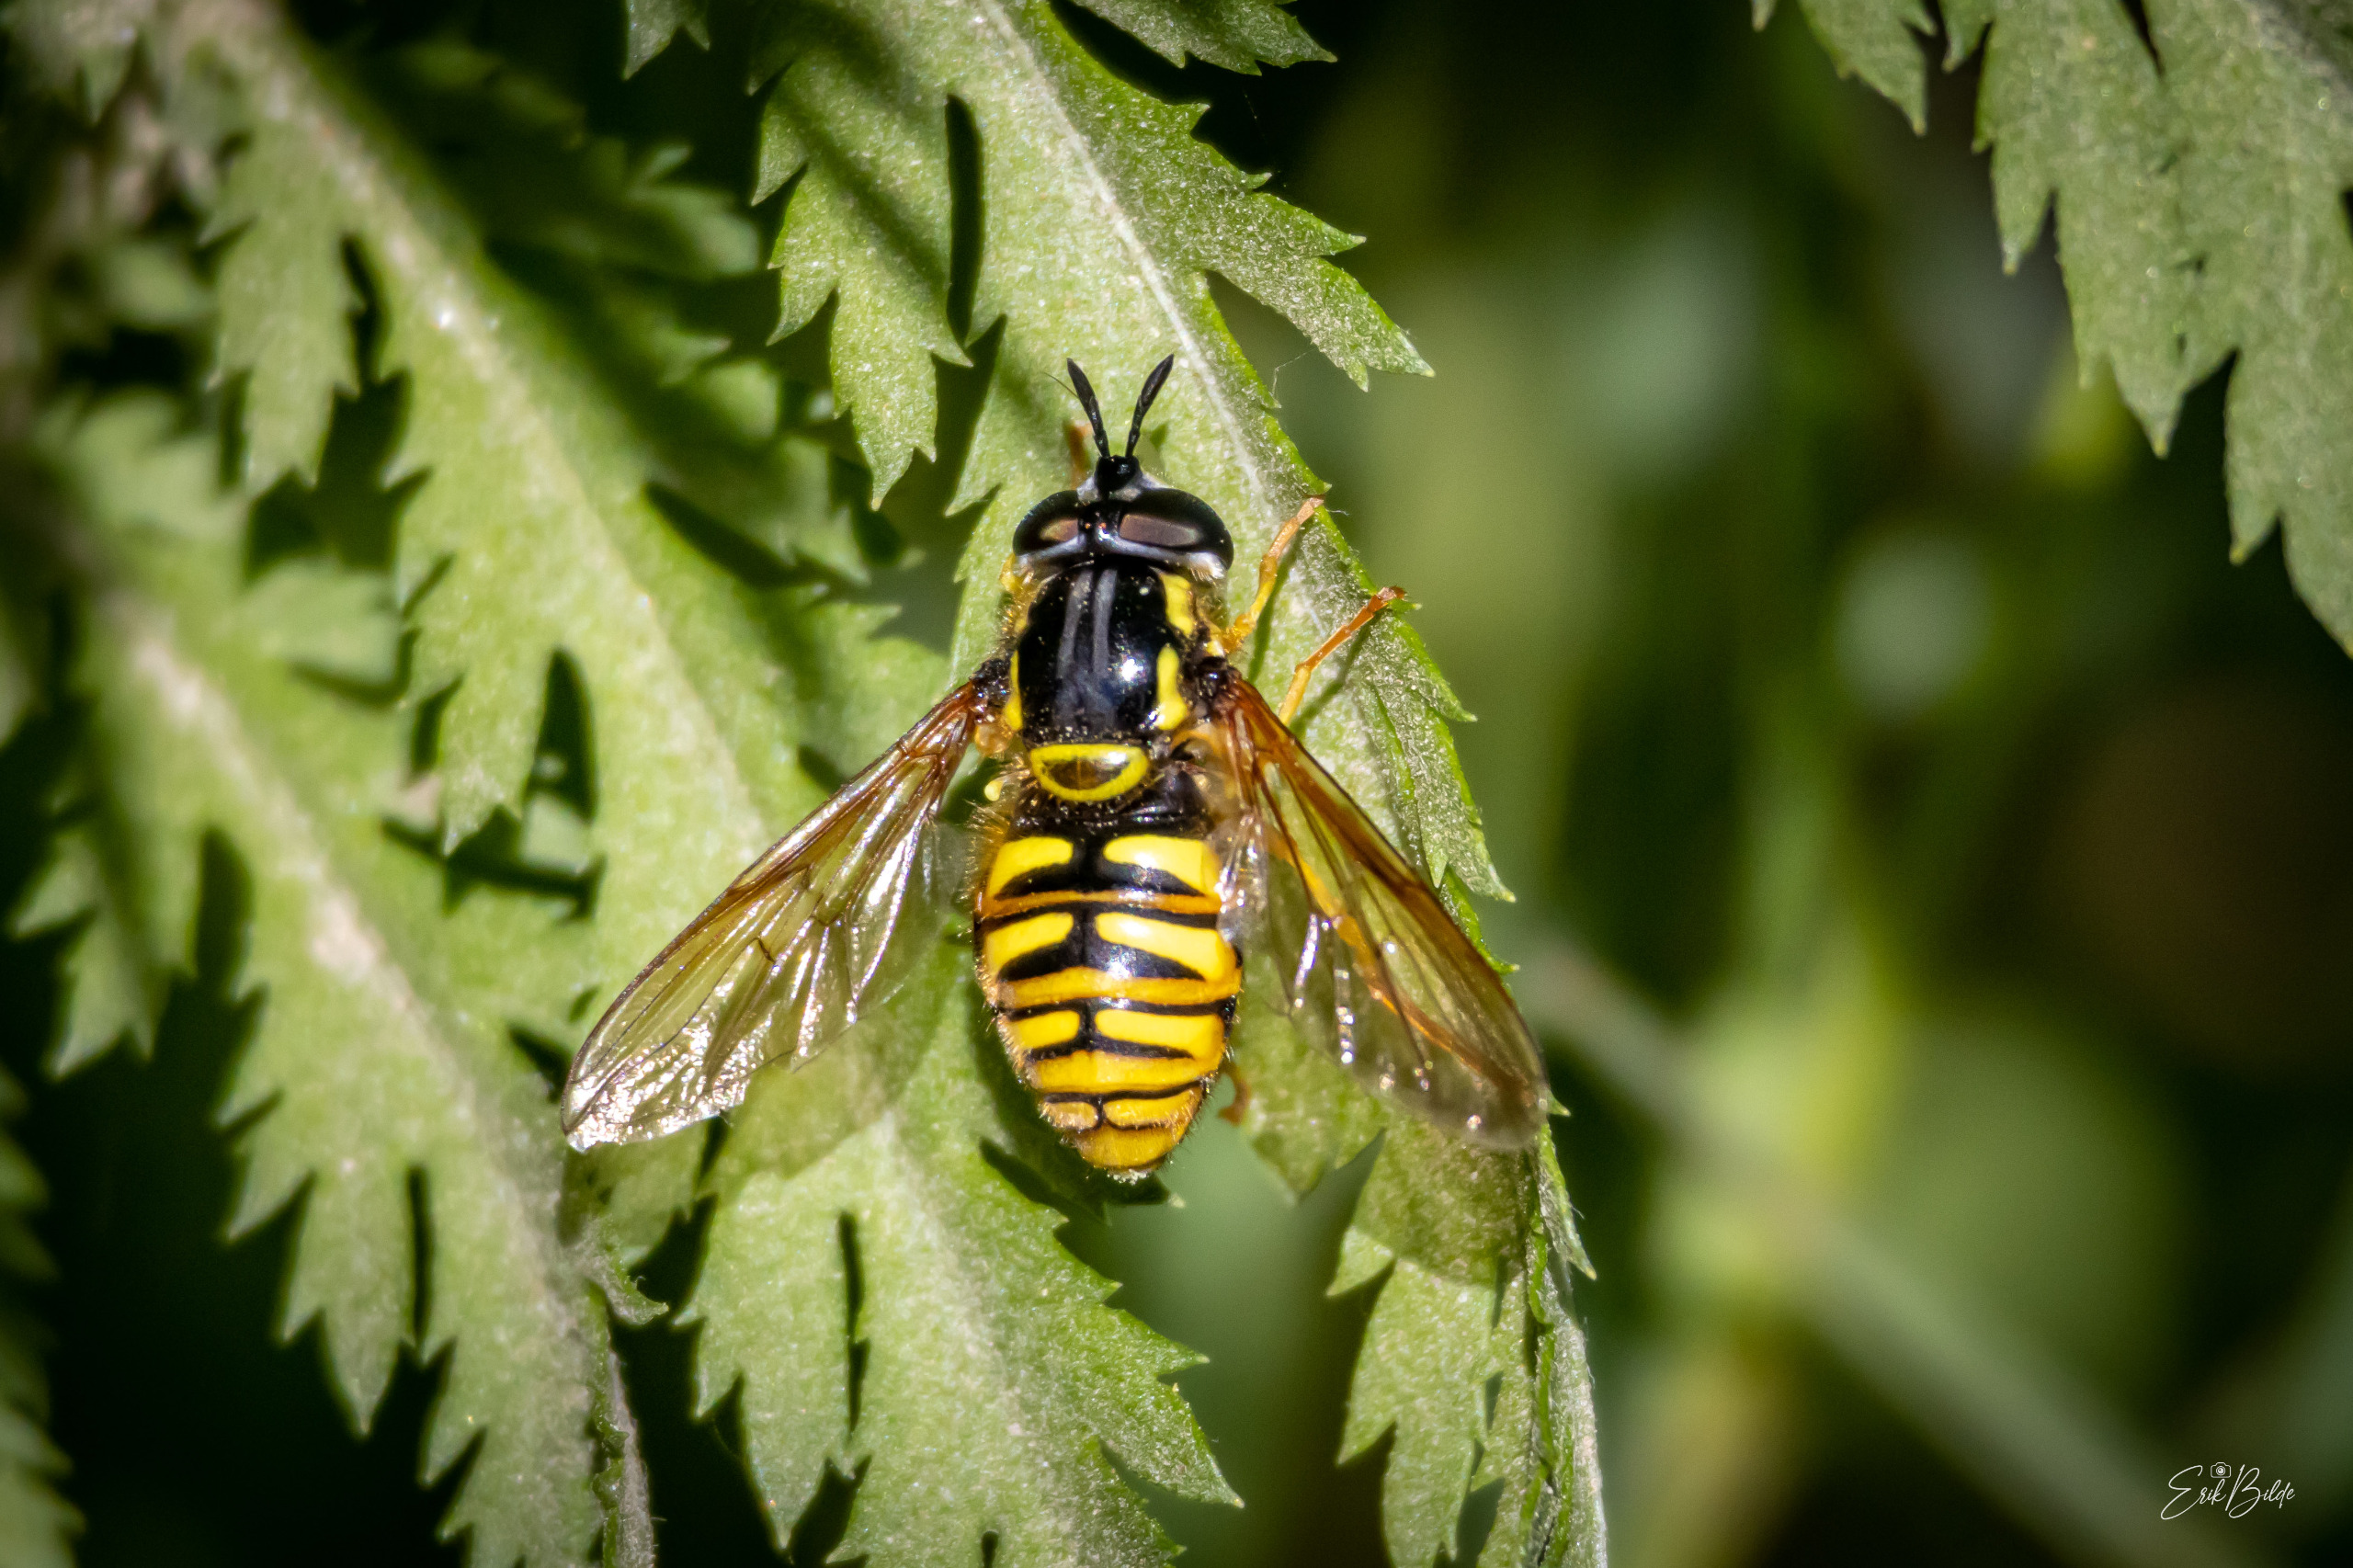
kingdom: Animalia
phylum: Arthropoda
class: Insecta
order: Diptera
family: Syrphidae
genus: Chrysotoxum
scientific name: Chrysotoxum cautum
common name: Stor hvepsesvirreflue
